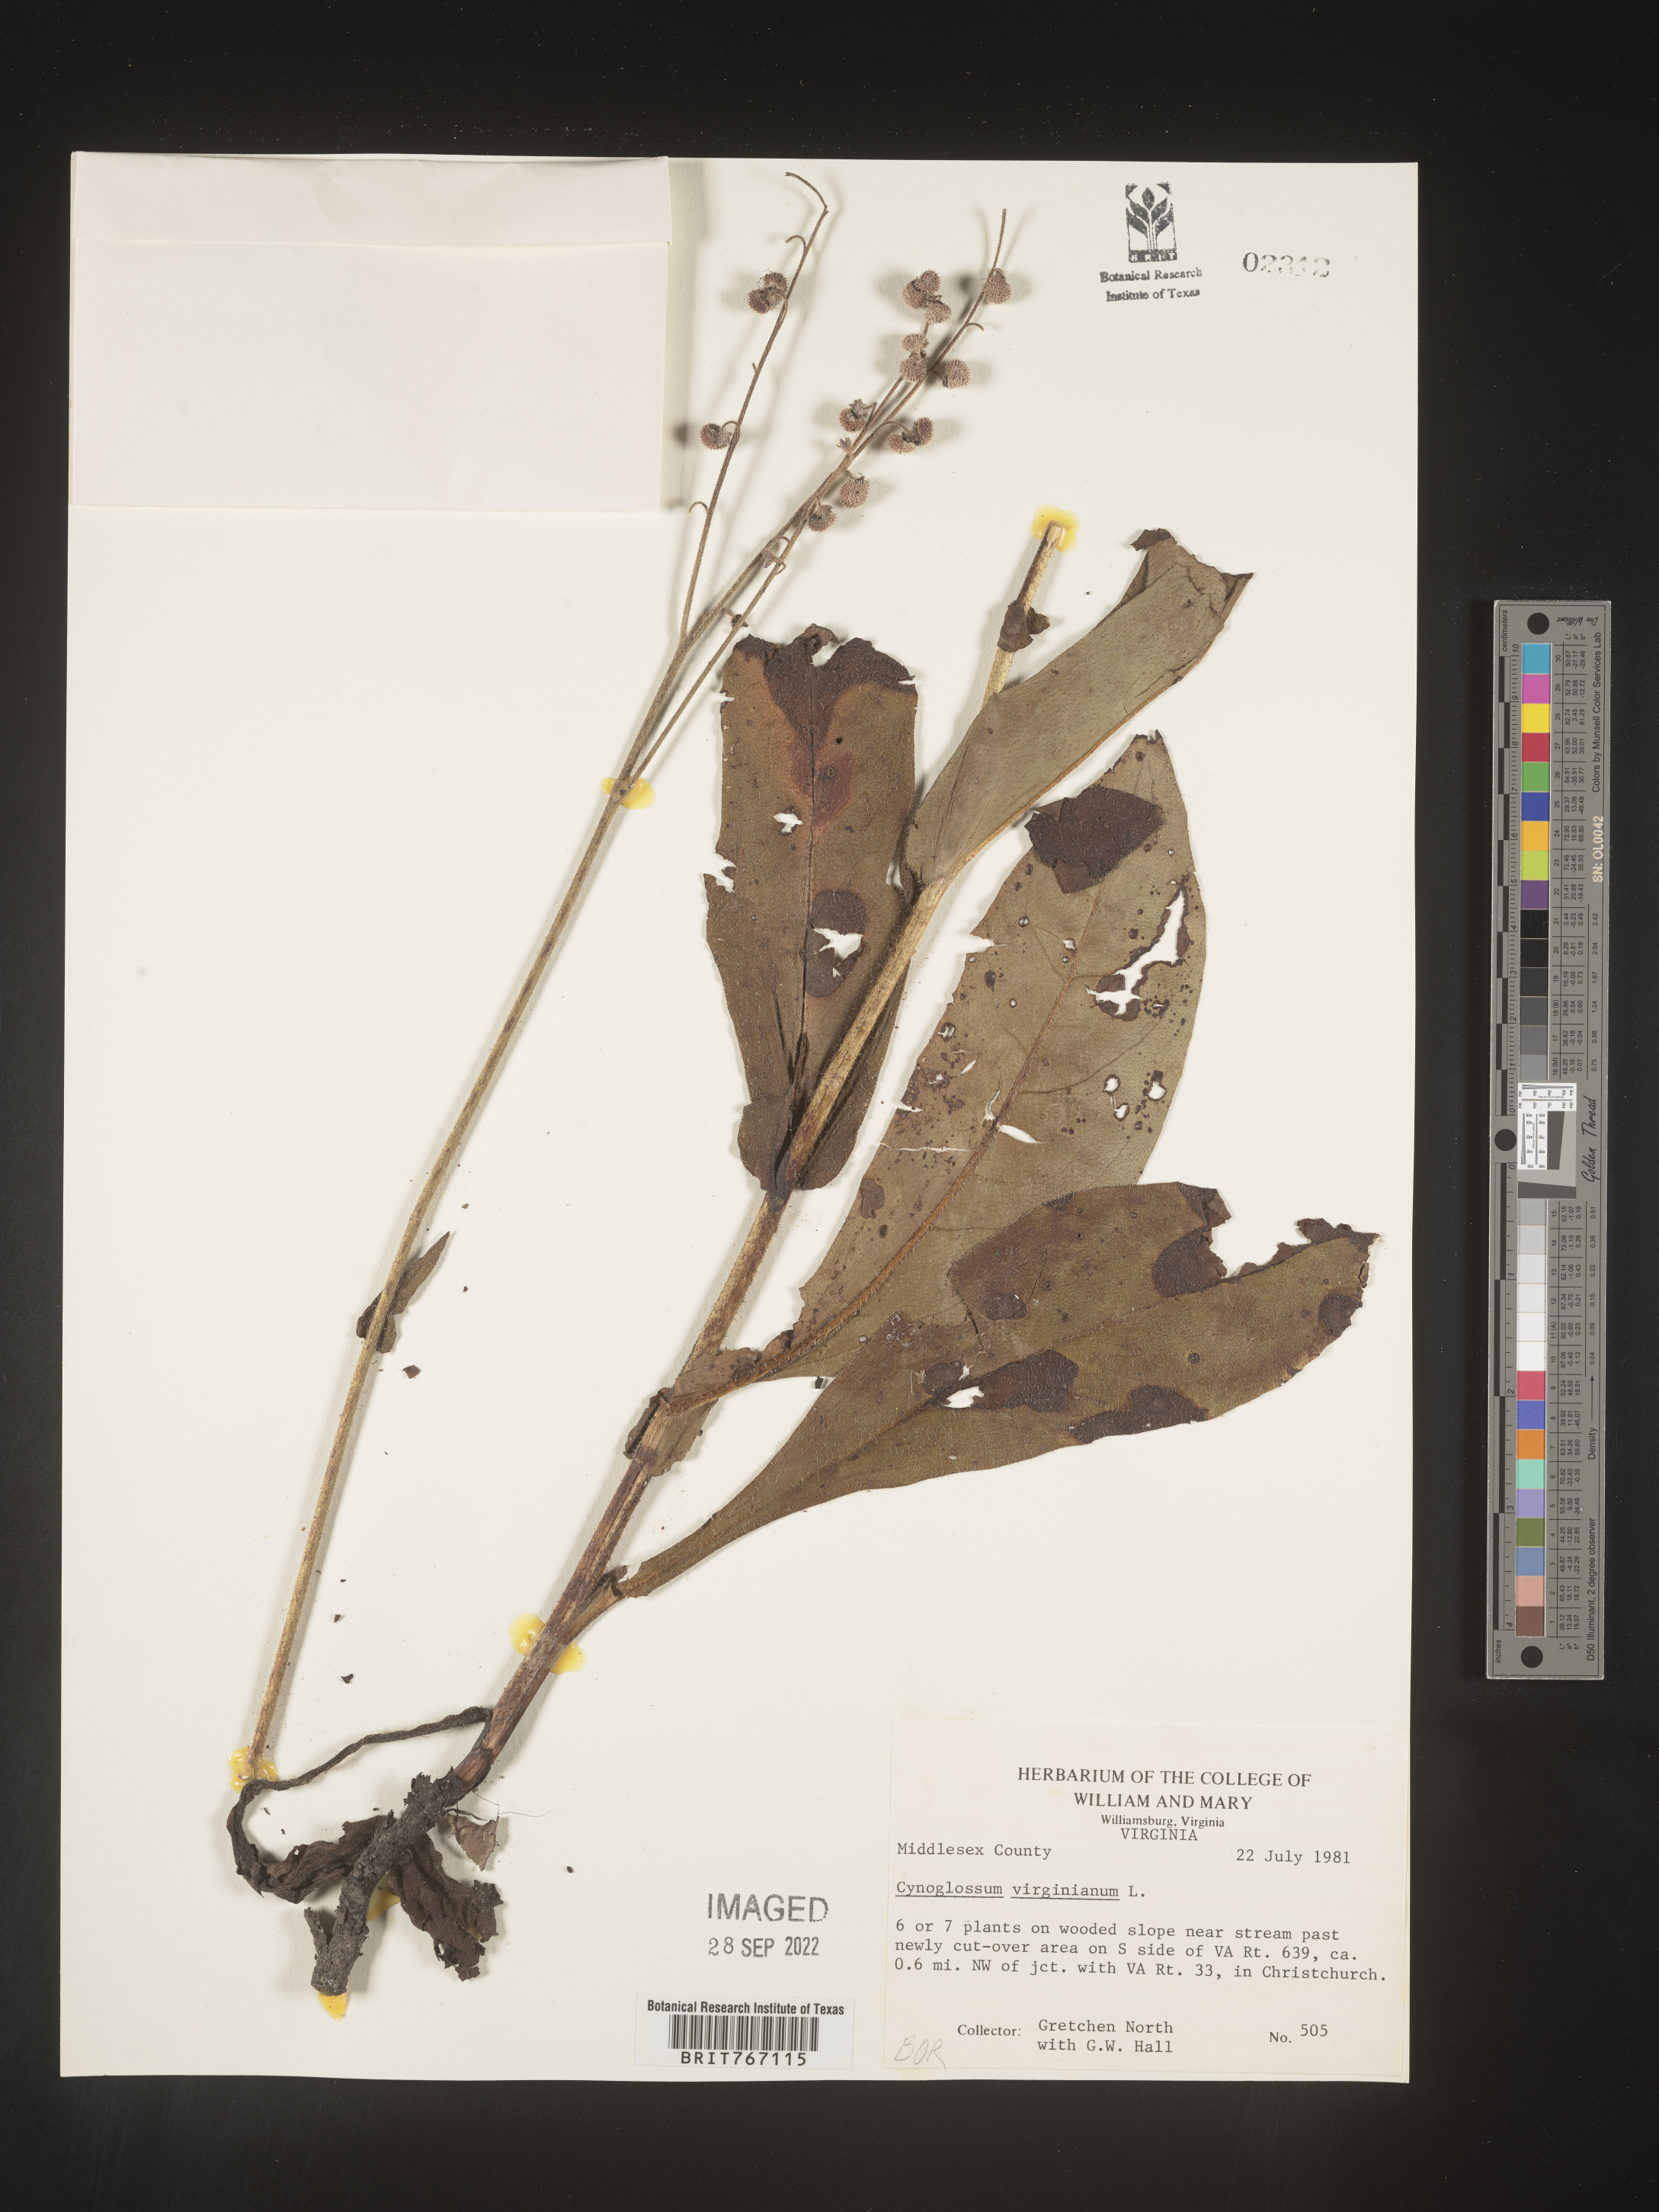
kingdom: Plantae
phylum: Tracheophyta
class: Magnoliopsida
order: Boraginales
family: Boraginaceae
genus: Andersonglossum
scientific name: Andersonglossum virginianum
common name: Wild comfrey
